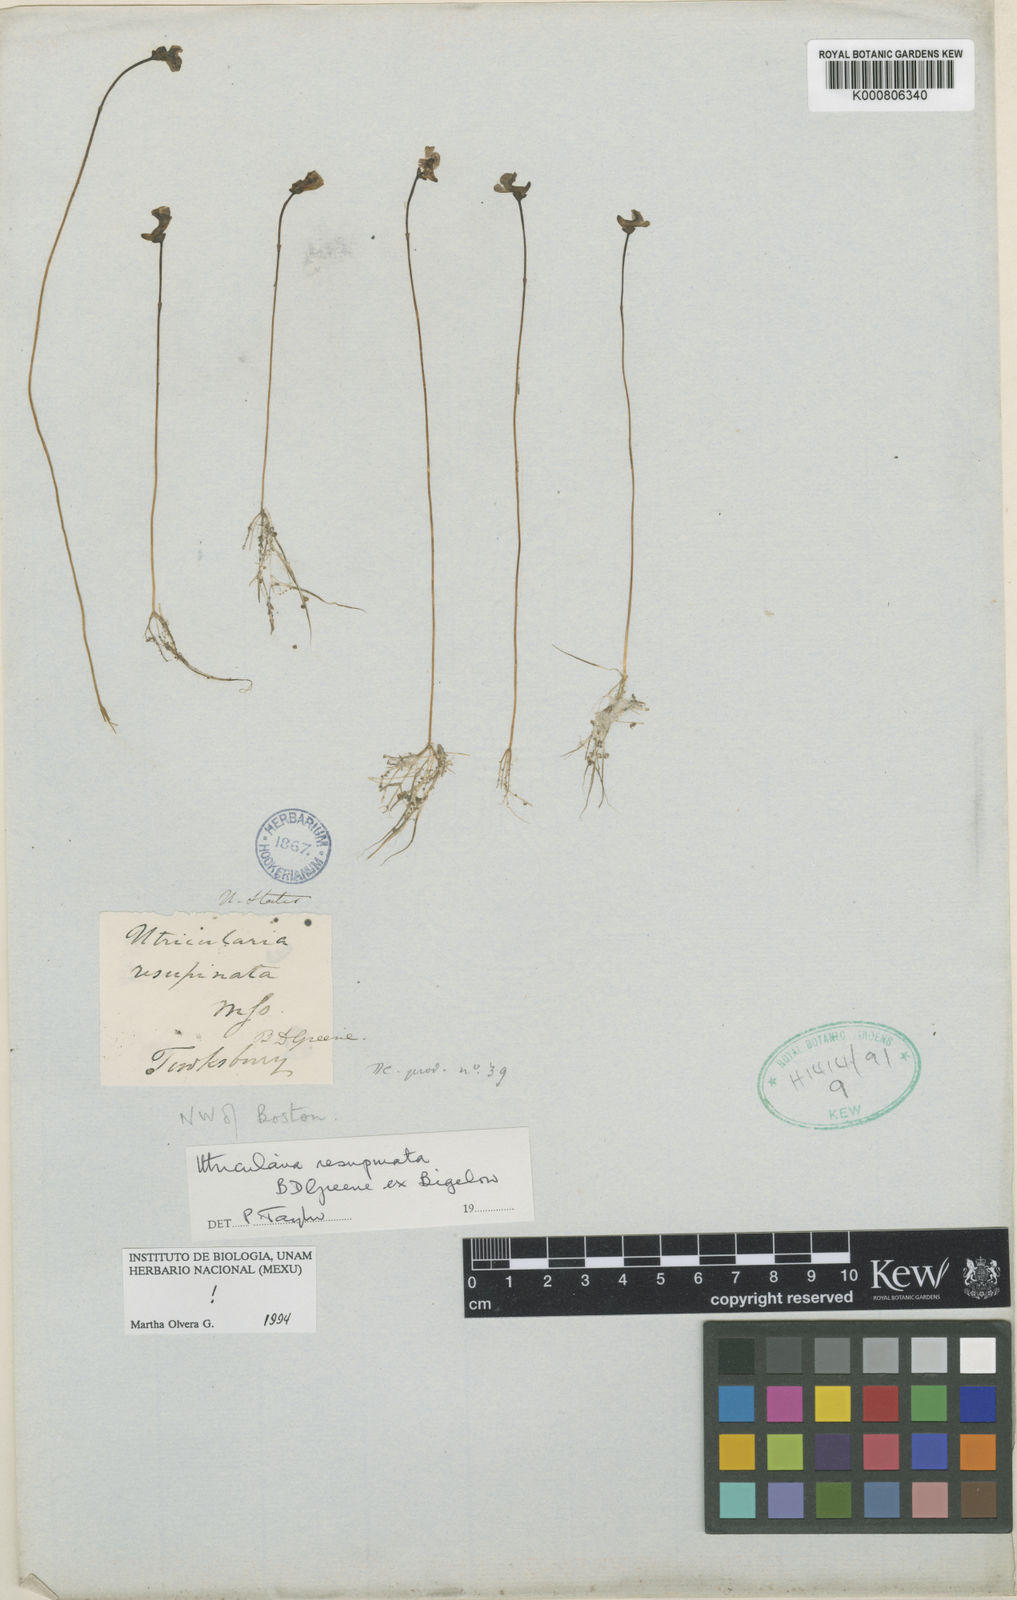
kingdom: Plantae
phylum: Tracheophyta
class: Magnoliopsida
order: Lamiales
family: Lentibulariaceae
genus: Utricularia
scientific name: Utricularia resupinata
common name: Northeastern bladderwort
